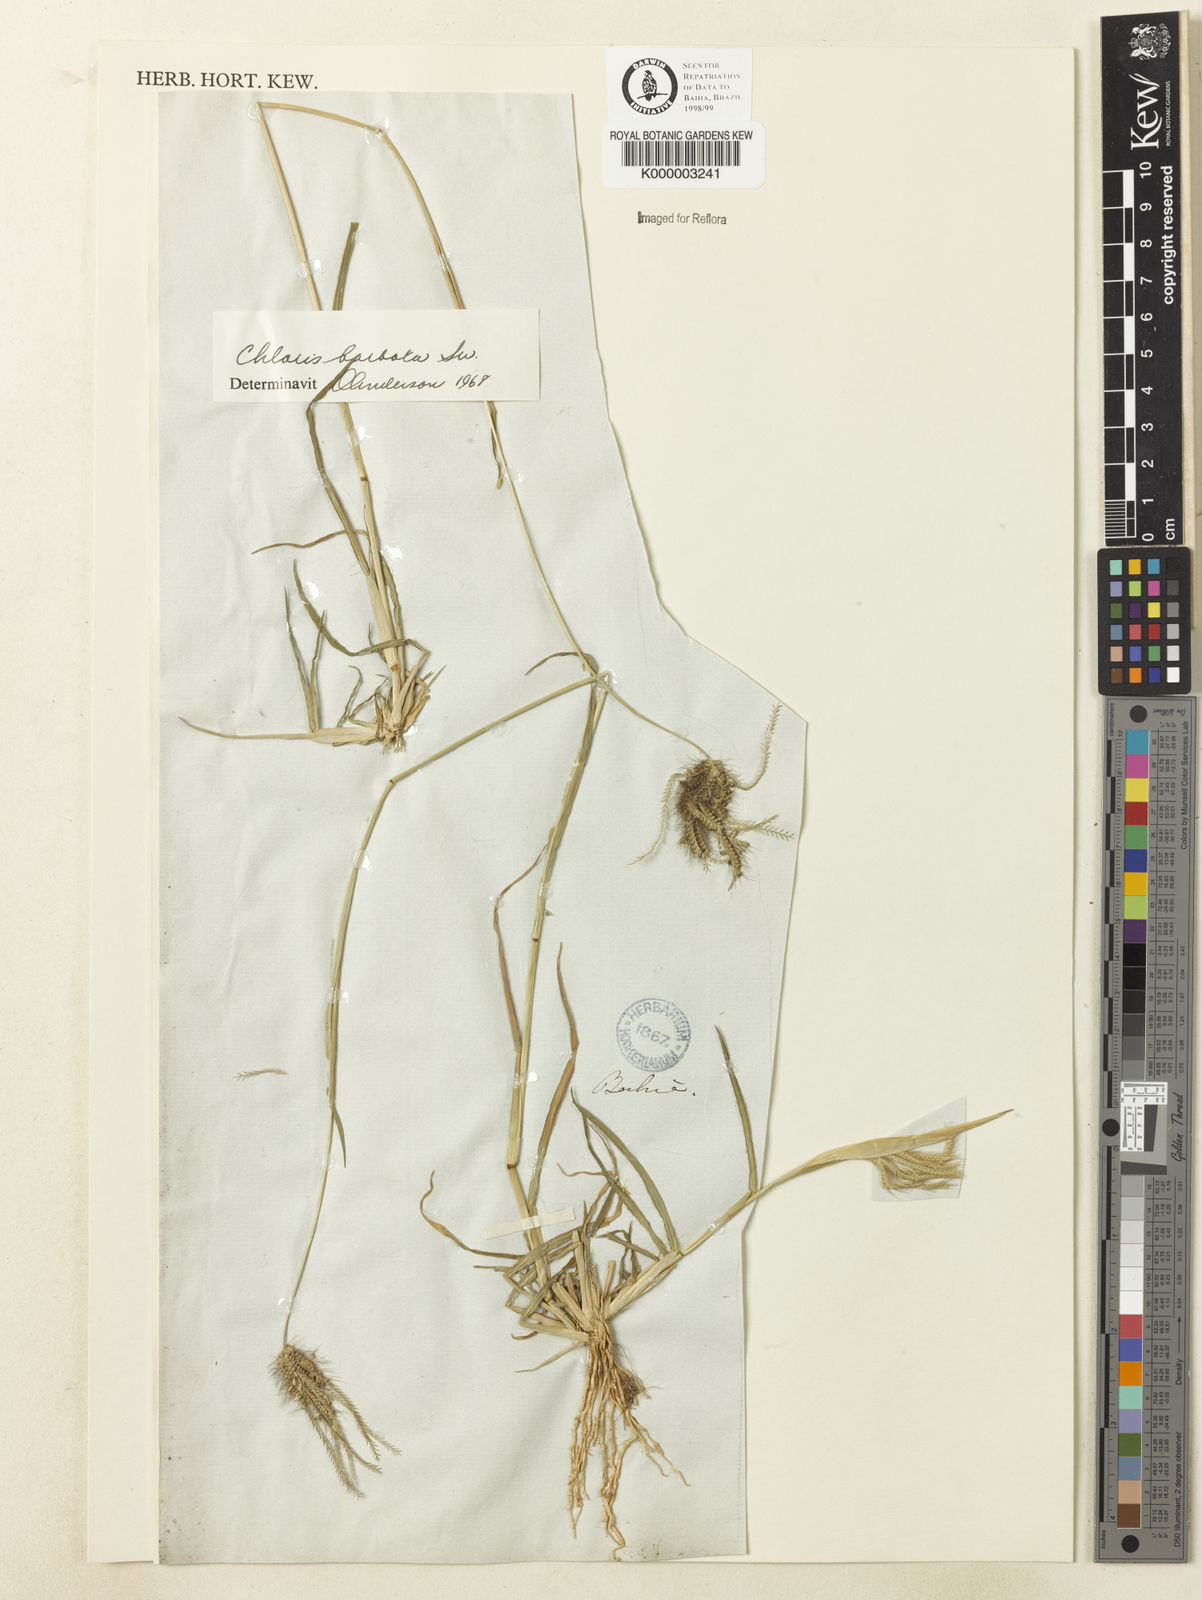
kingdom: Plantae
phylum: Tracheophyta
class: Liliopsida
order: Poales
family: Poaceae
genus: Chloris
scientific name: Chloris
